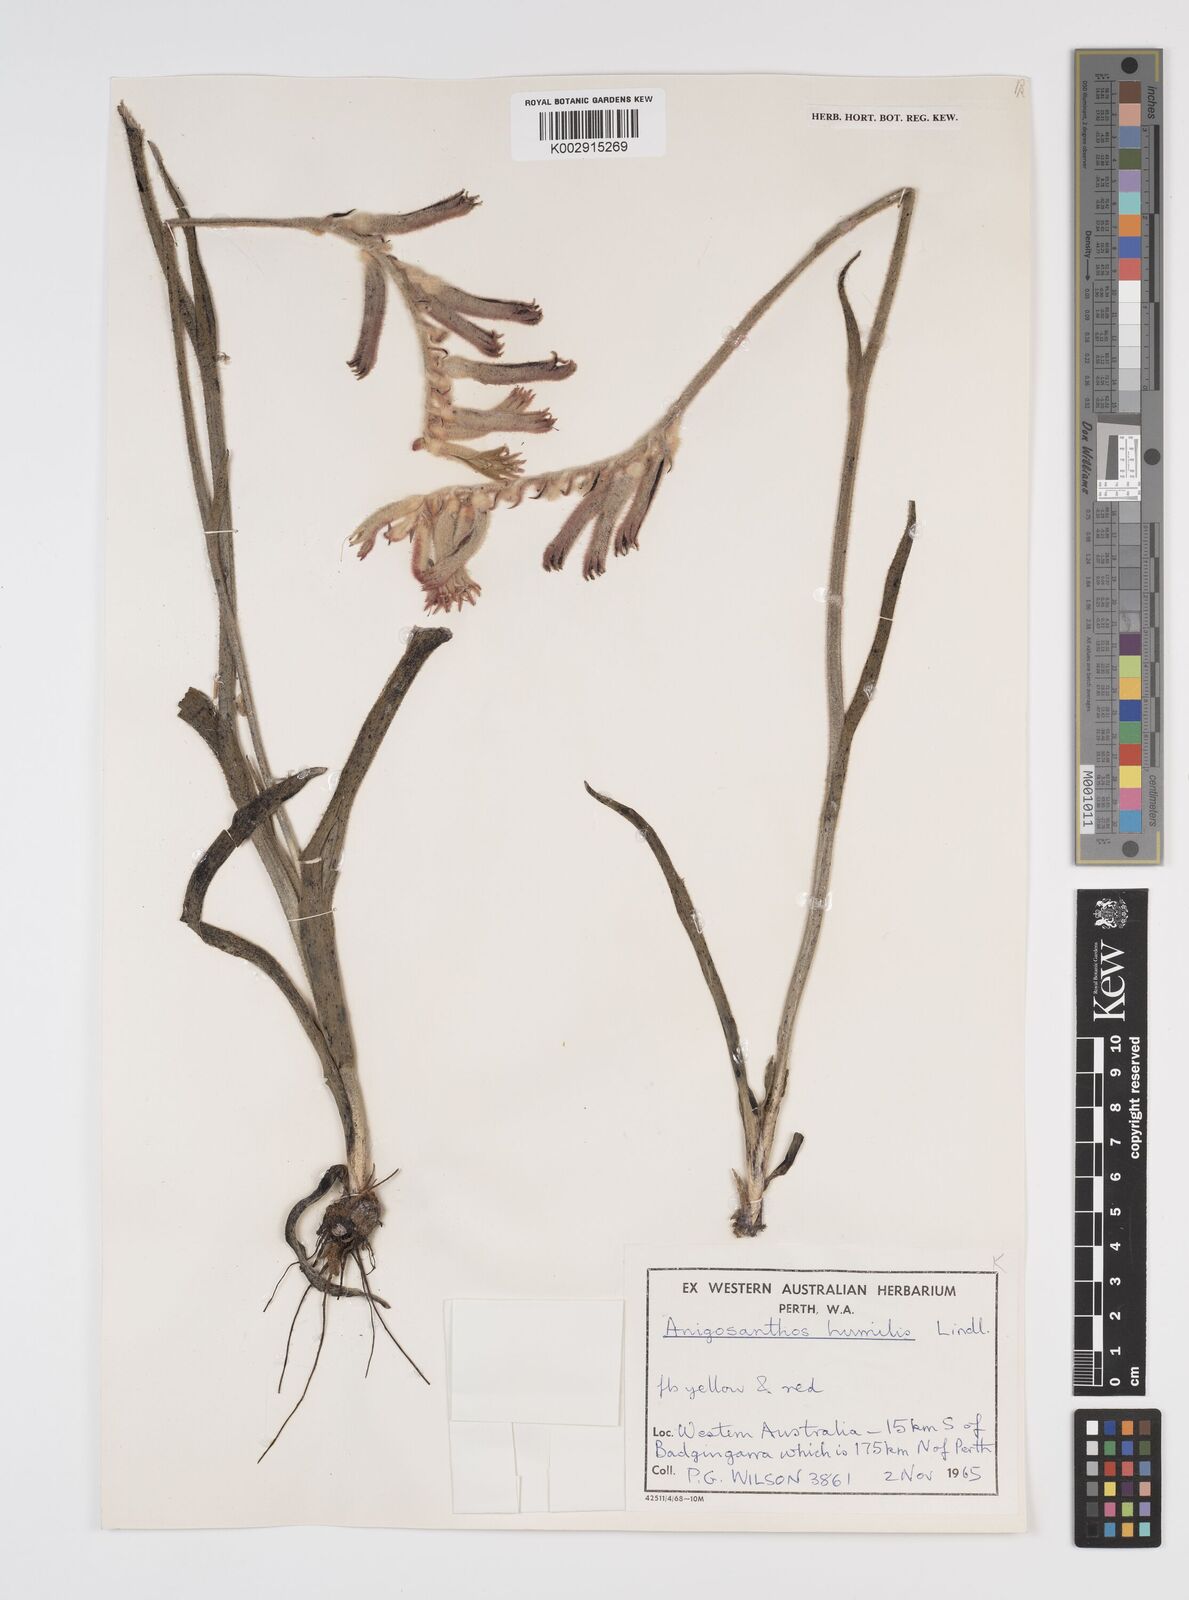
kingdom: Plantae
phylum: Tracheophyta
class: Liliopsida
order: Commelinales
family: Haemodoraceae
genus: Anigozanthos
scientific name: Anigozanthos humilis
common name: Cat's-paw
